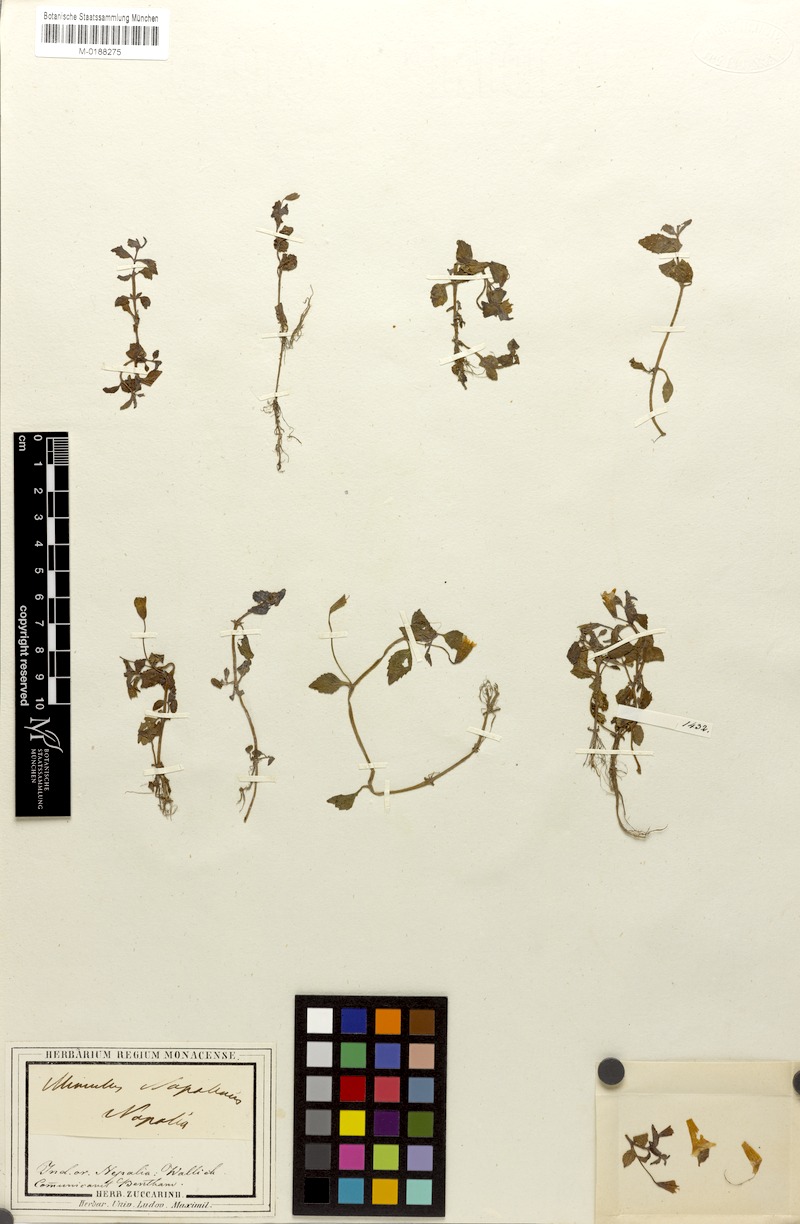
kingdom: Plantae
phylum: Tracheophyta
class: Magnoliopsida
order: Lamiales
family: Phrymaceae
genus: Erythranthe
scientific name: Erythranthe nepalensis
